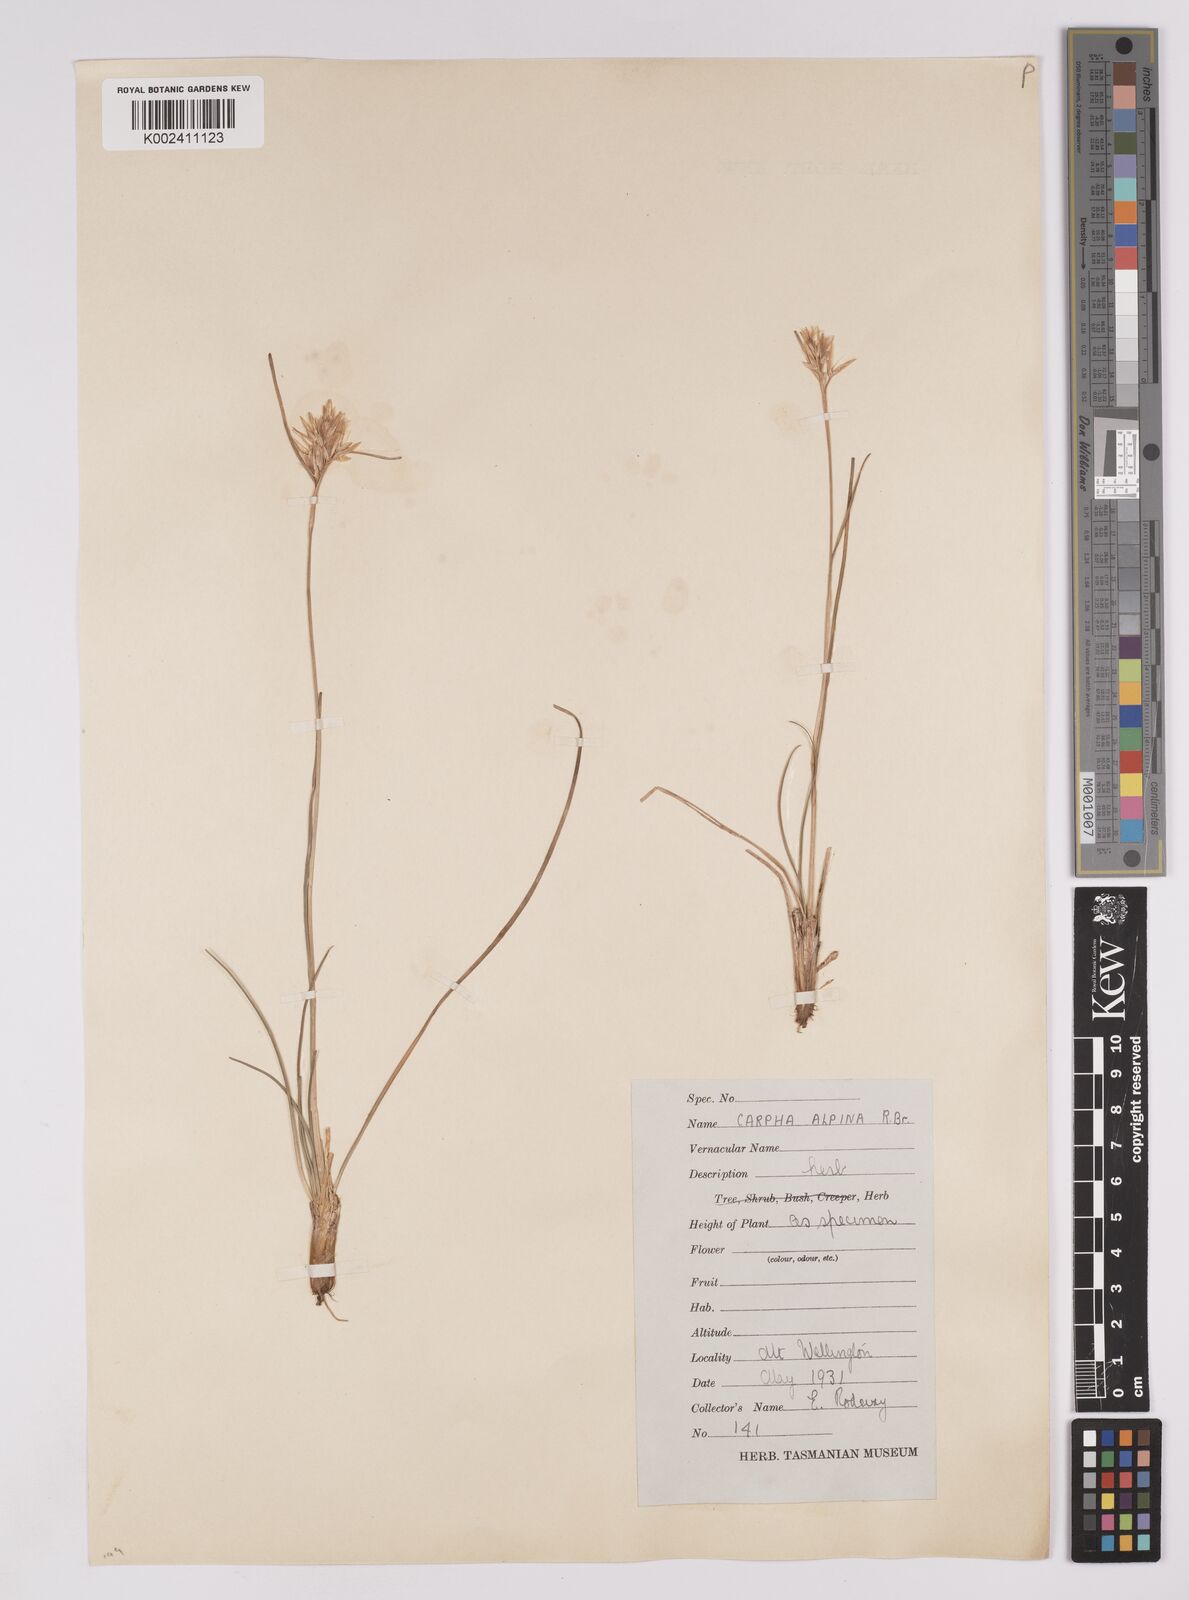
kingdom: Plantae
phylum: Tracheophyta
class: Liliopsida
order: Poales
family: Cyperaceae
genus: Carpha
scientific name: Carpha alpina
